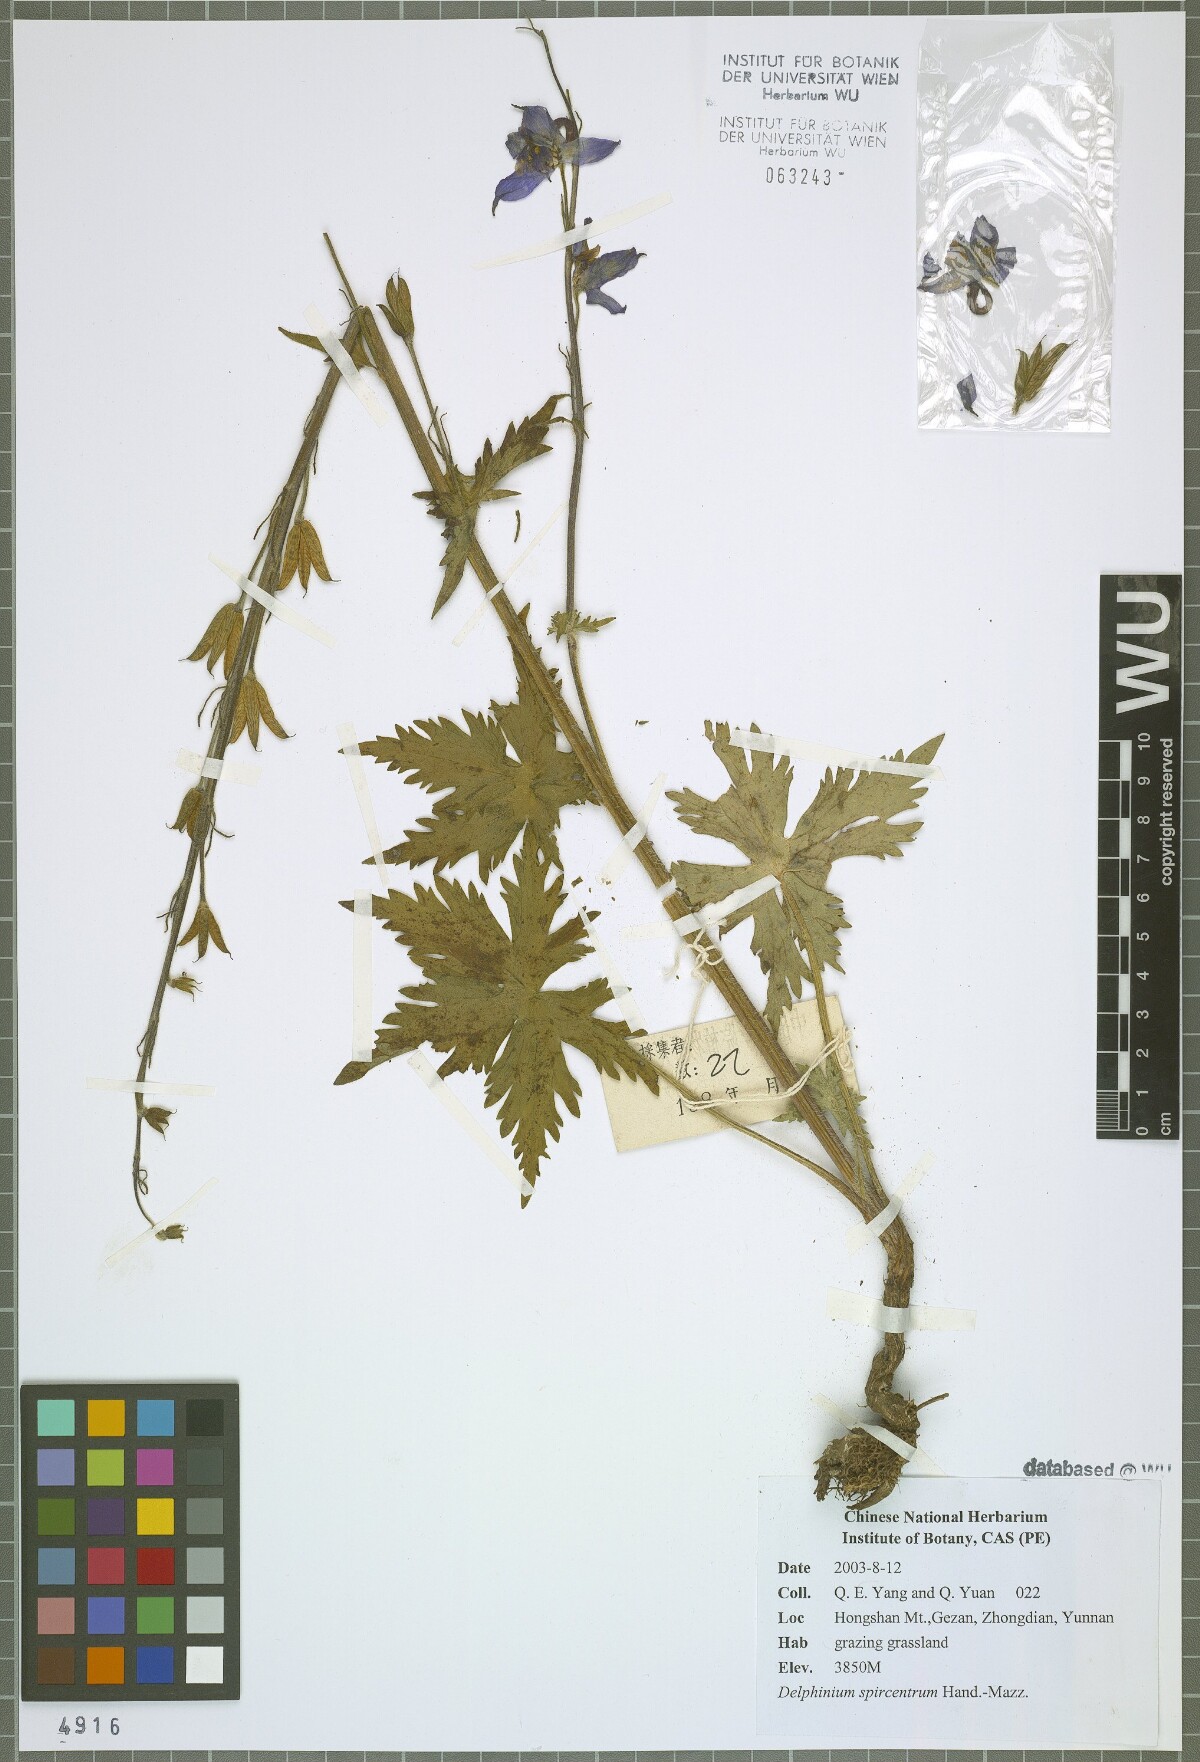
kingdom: Plantae
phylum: Tracheophyta
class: Magnoliopsida
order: Ranunculales
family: Ranunculaceae
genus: Delphinium
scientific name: Delphinium spirocentrum
